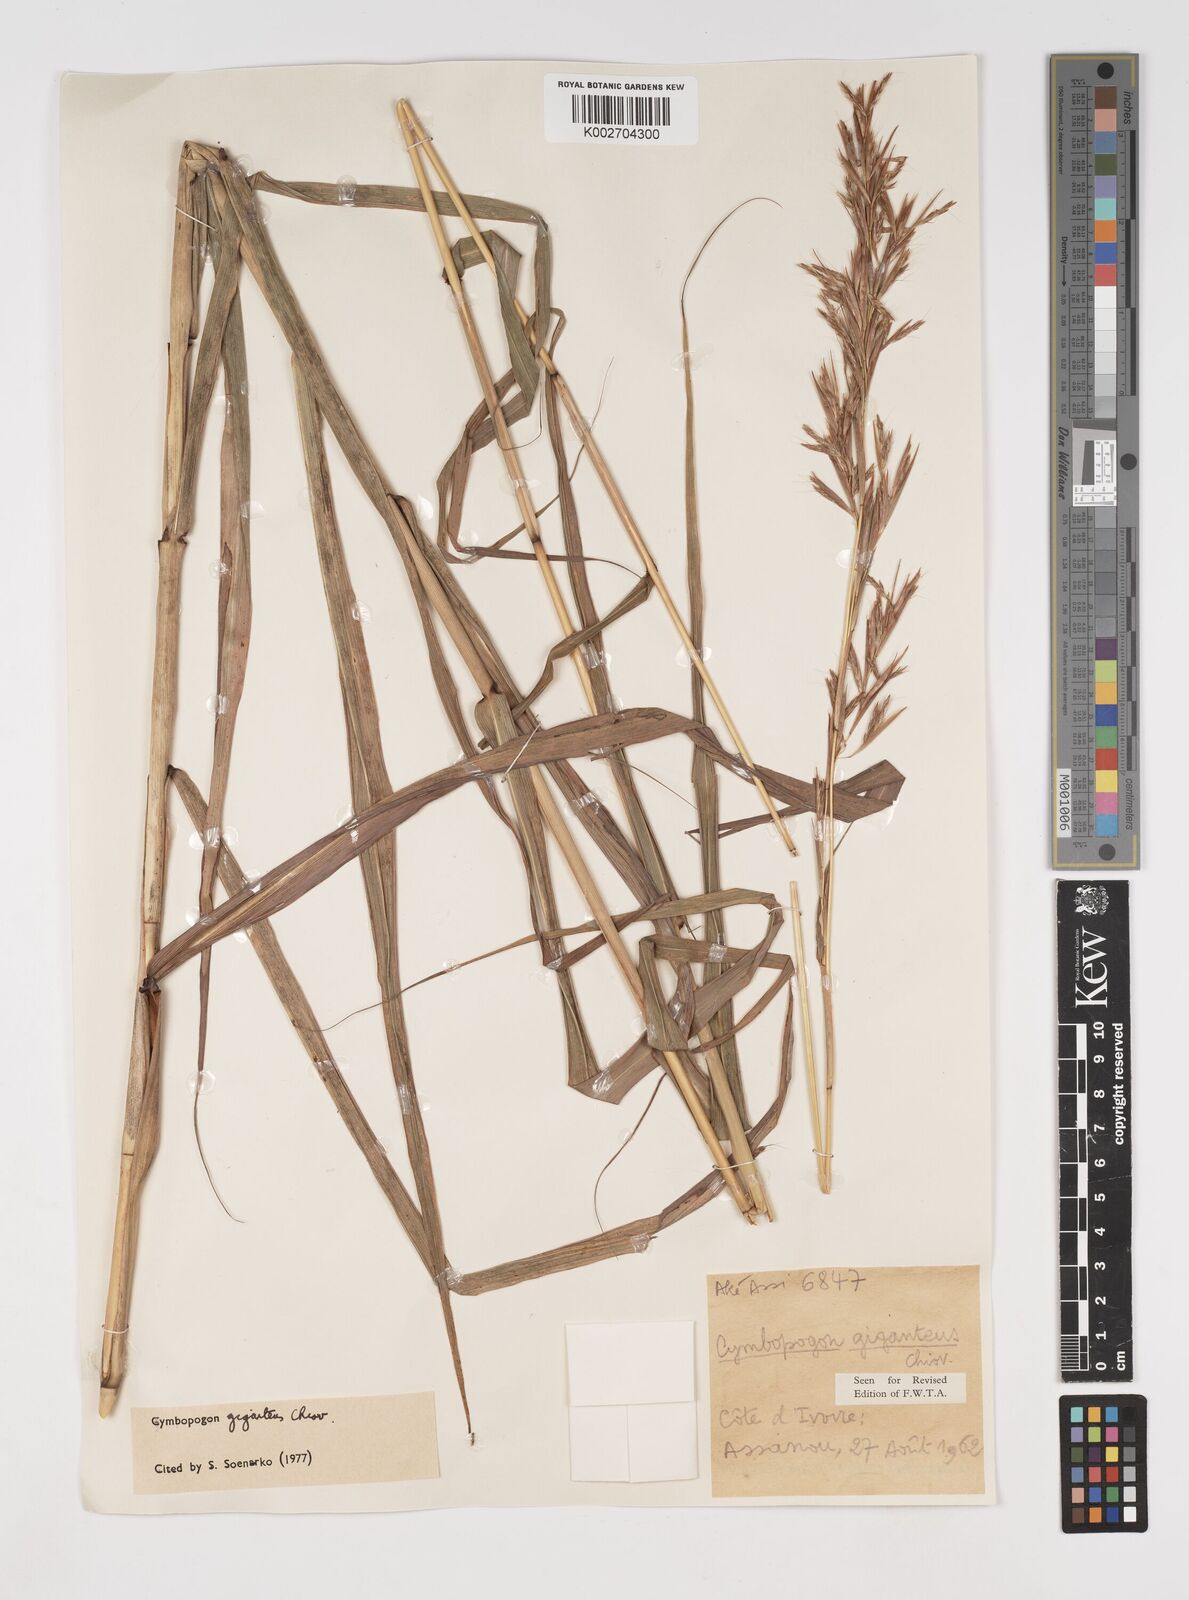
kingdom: Plantae
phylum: Tracheophyta
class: Liliopsida
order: Poales
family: Poaceae
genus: Cymbopogon
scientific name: Cymbopogon giganteus
